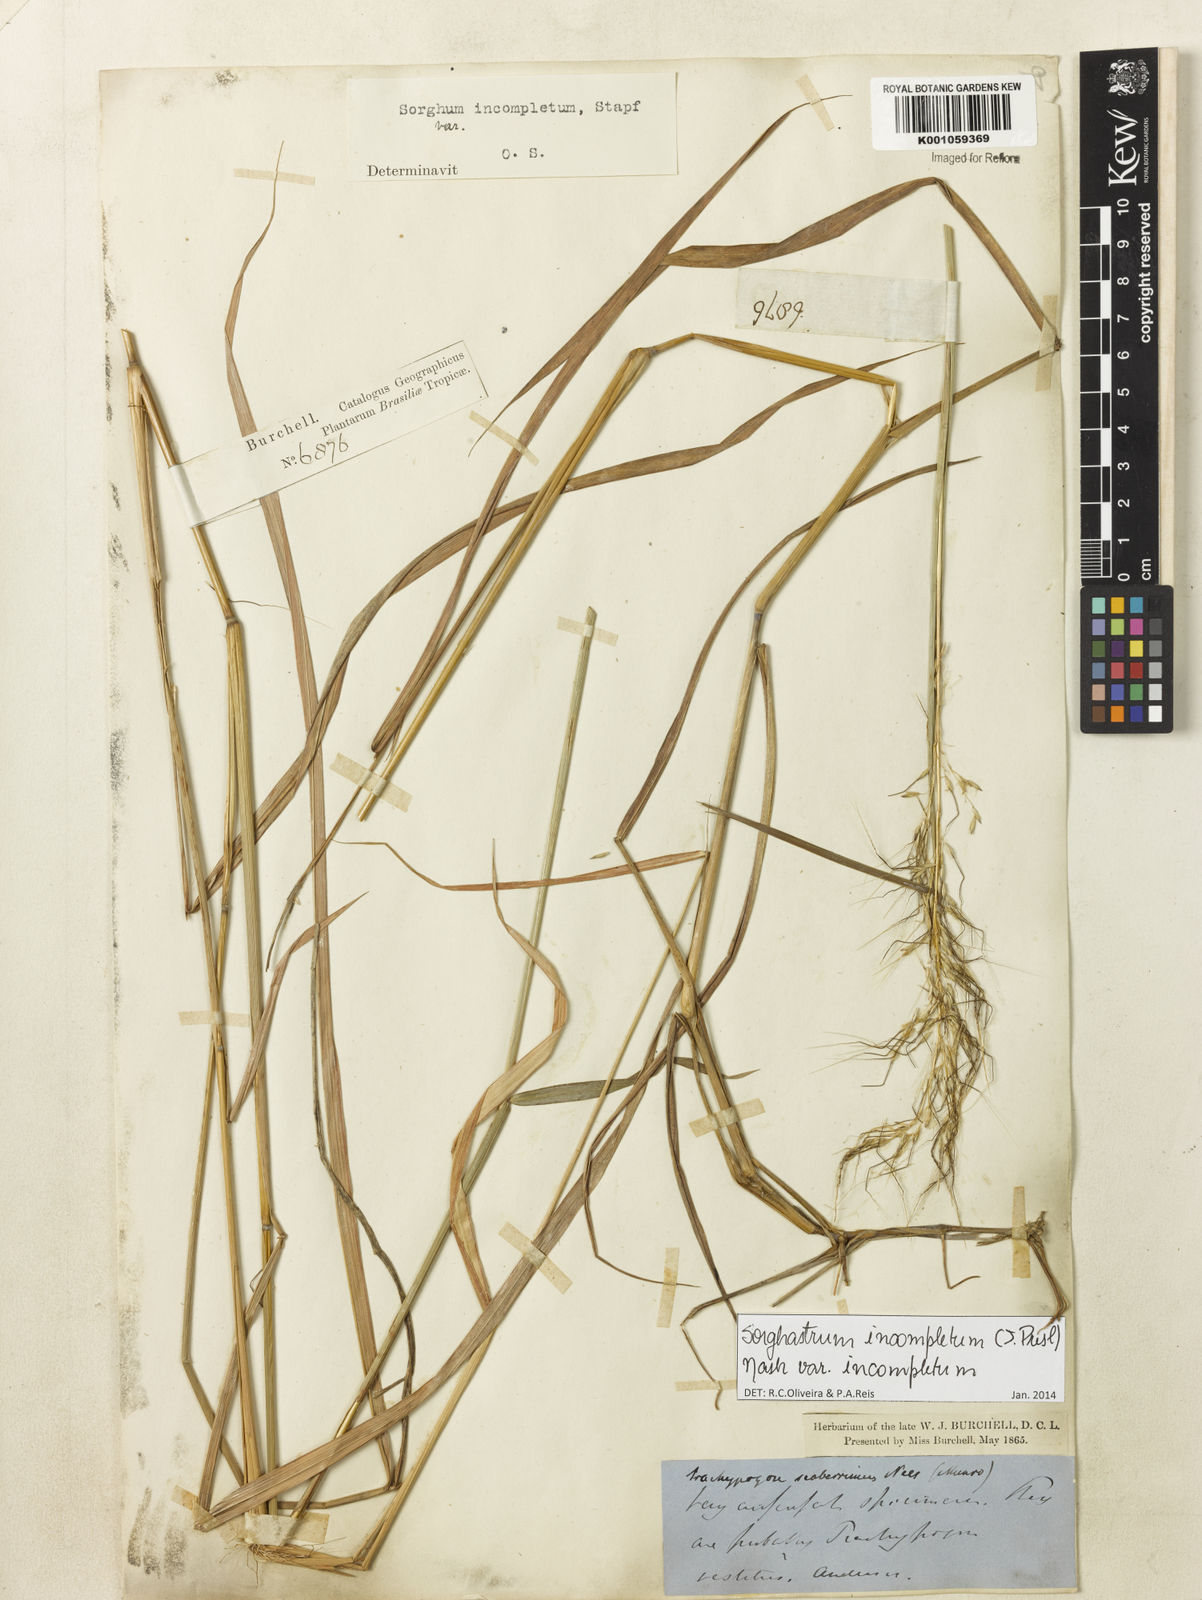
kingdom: Plantae
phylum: Tracheophyta
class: Liliopsida
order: Poales
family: Poaceae
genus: Sorghastrum
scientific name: Sorghastrum
